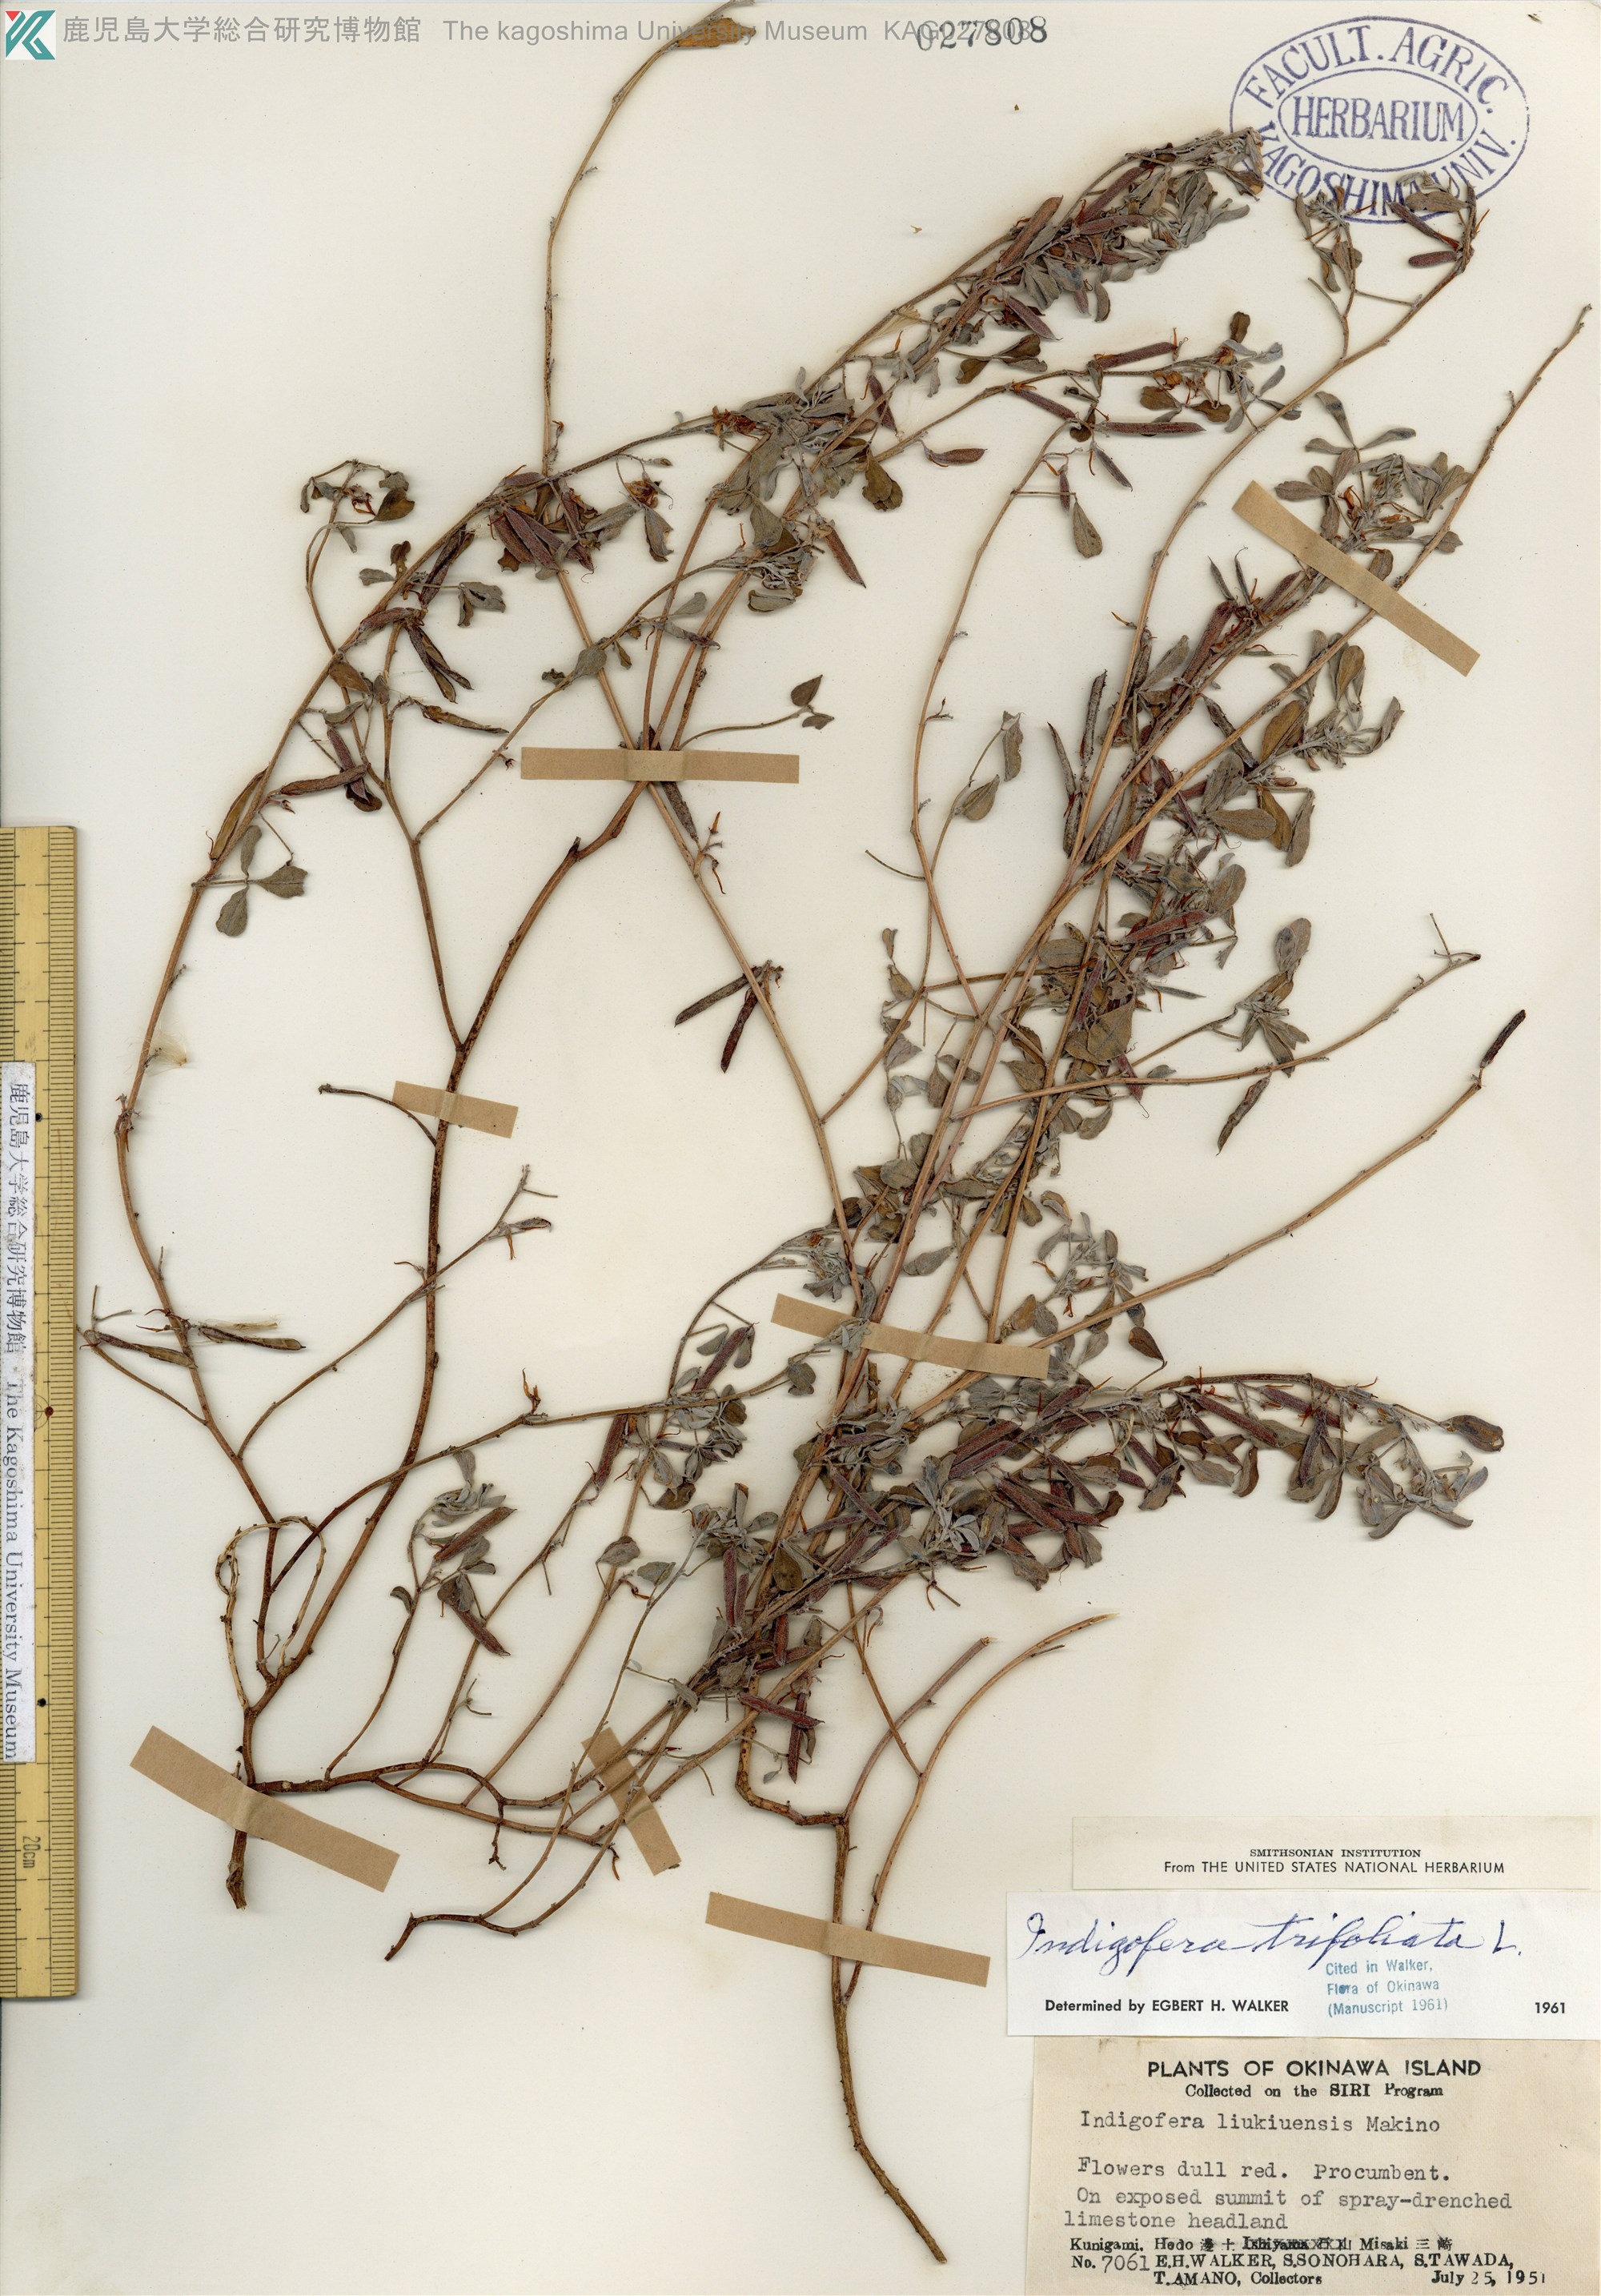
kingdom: Plantae
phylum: Tracheophyta
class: Magnoliopsida
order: Fabales
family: Fabaceae
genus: Indigofera
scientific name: Indigofera trifoliata
